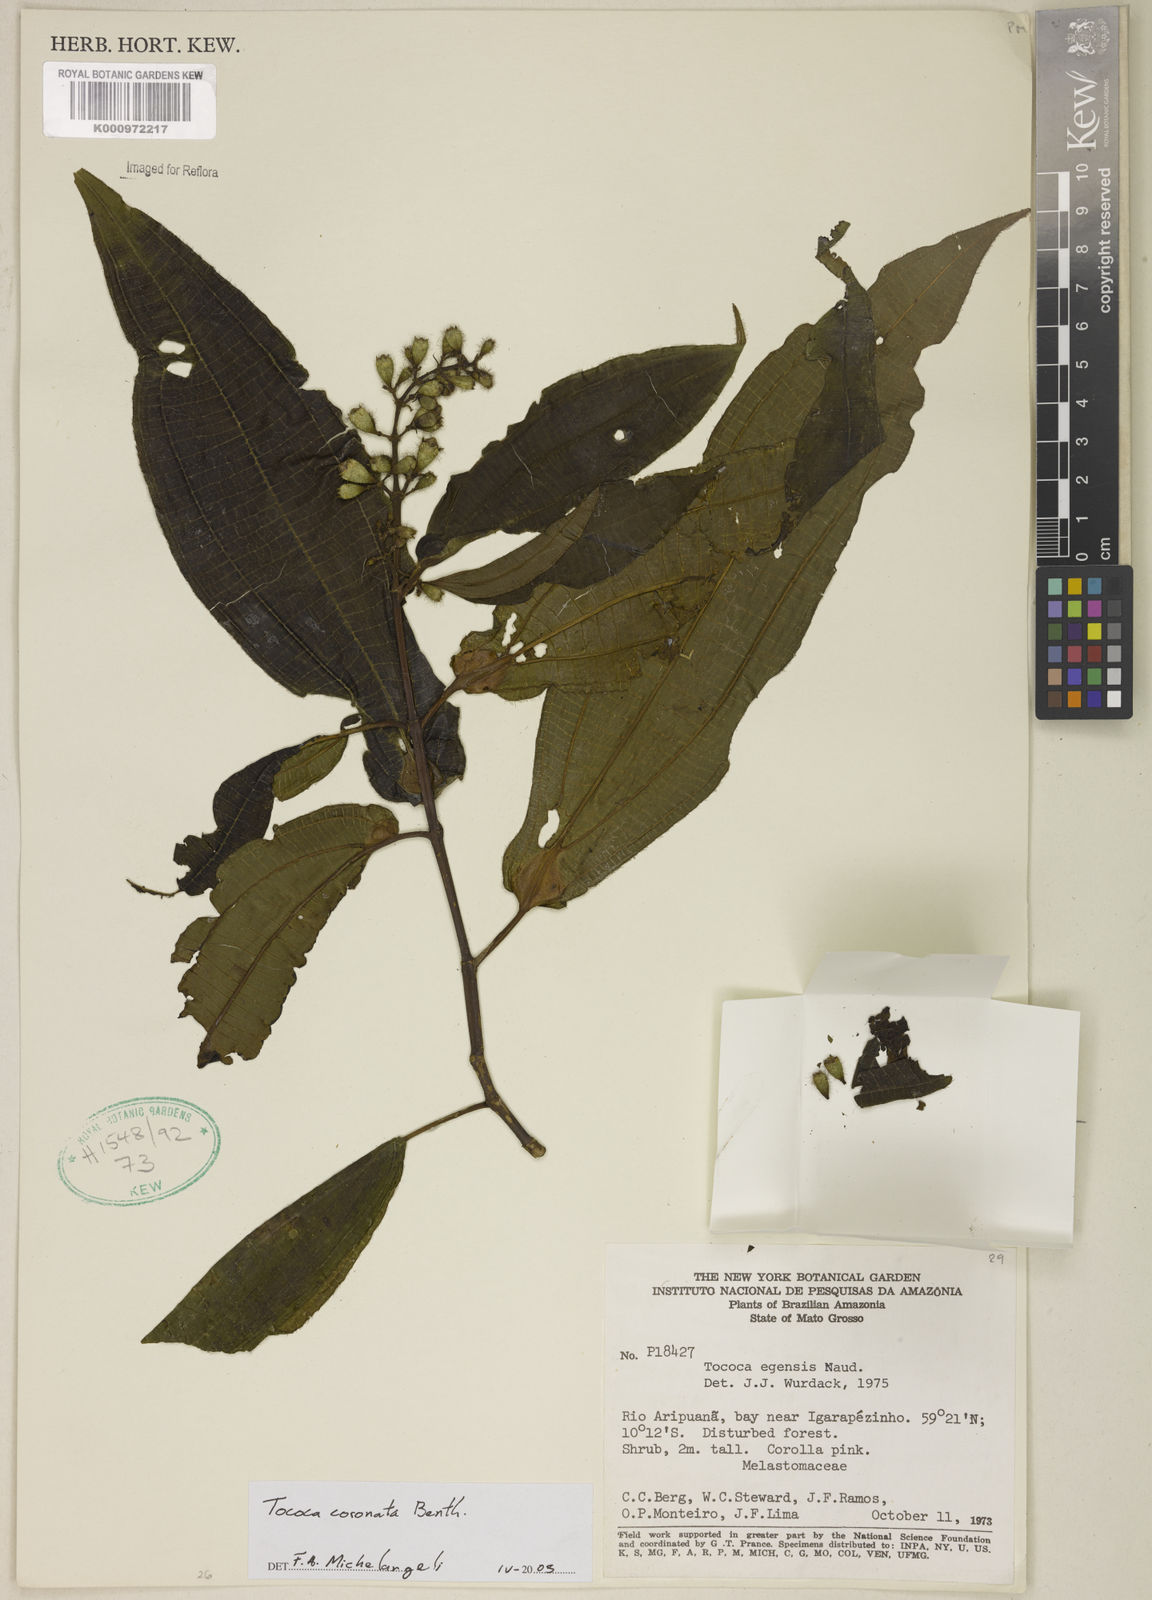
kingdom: Plantae
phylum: Tracheophyta
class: Magnoliopsida
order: Myrtales
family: Melastomataceae
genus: Miconia
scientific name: Miconia tococoronata
